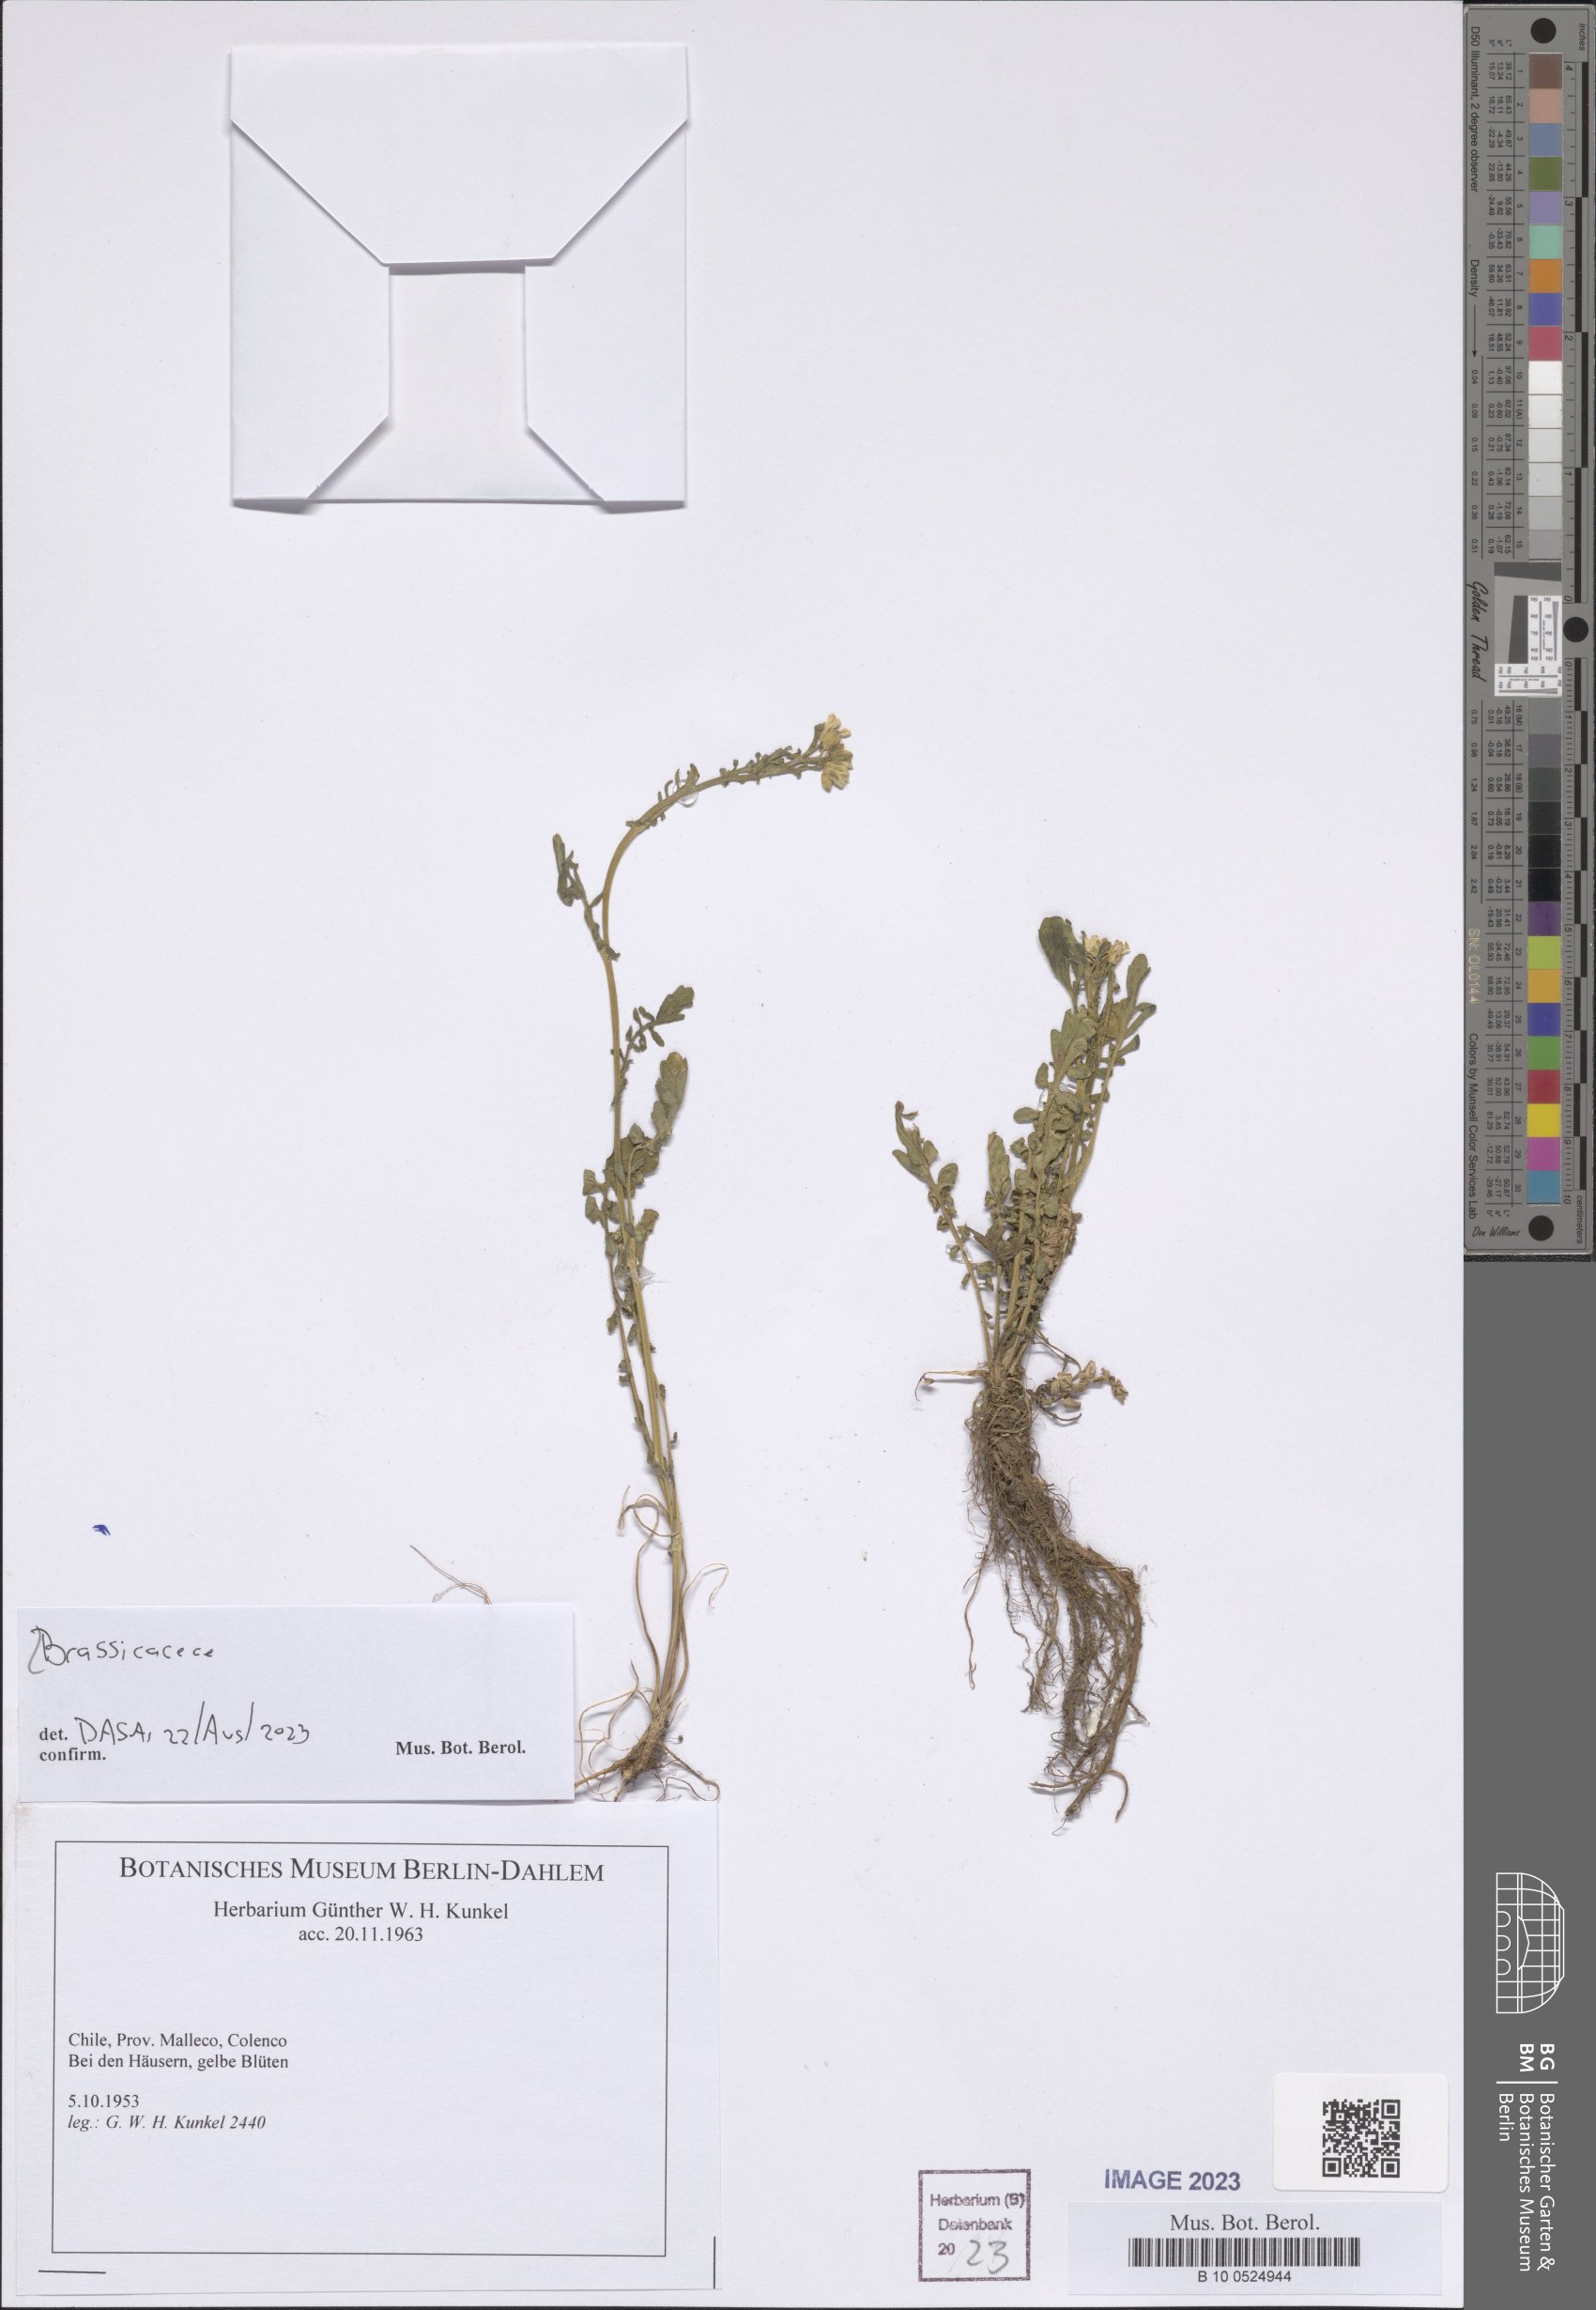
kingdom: Plantae
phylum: Tracheophyta
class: Magnoliopsida
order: Brassicales
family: Brassicaceae
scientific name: Brassicaceae
